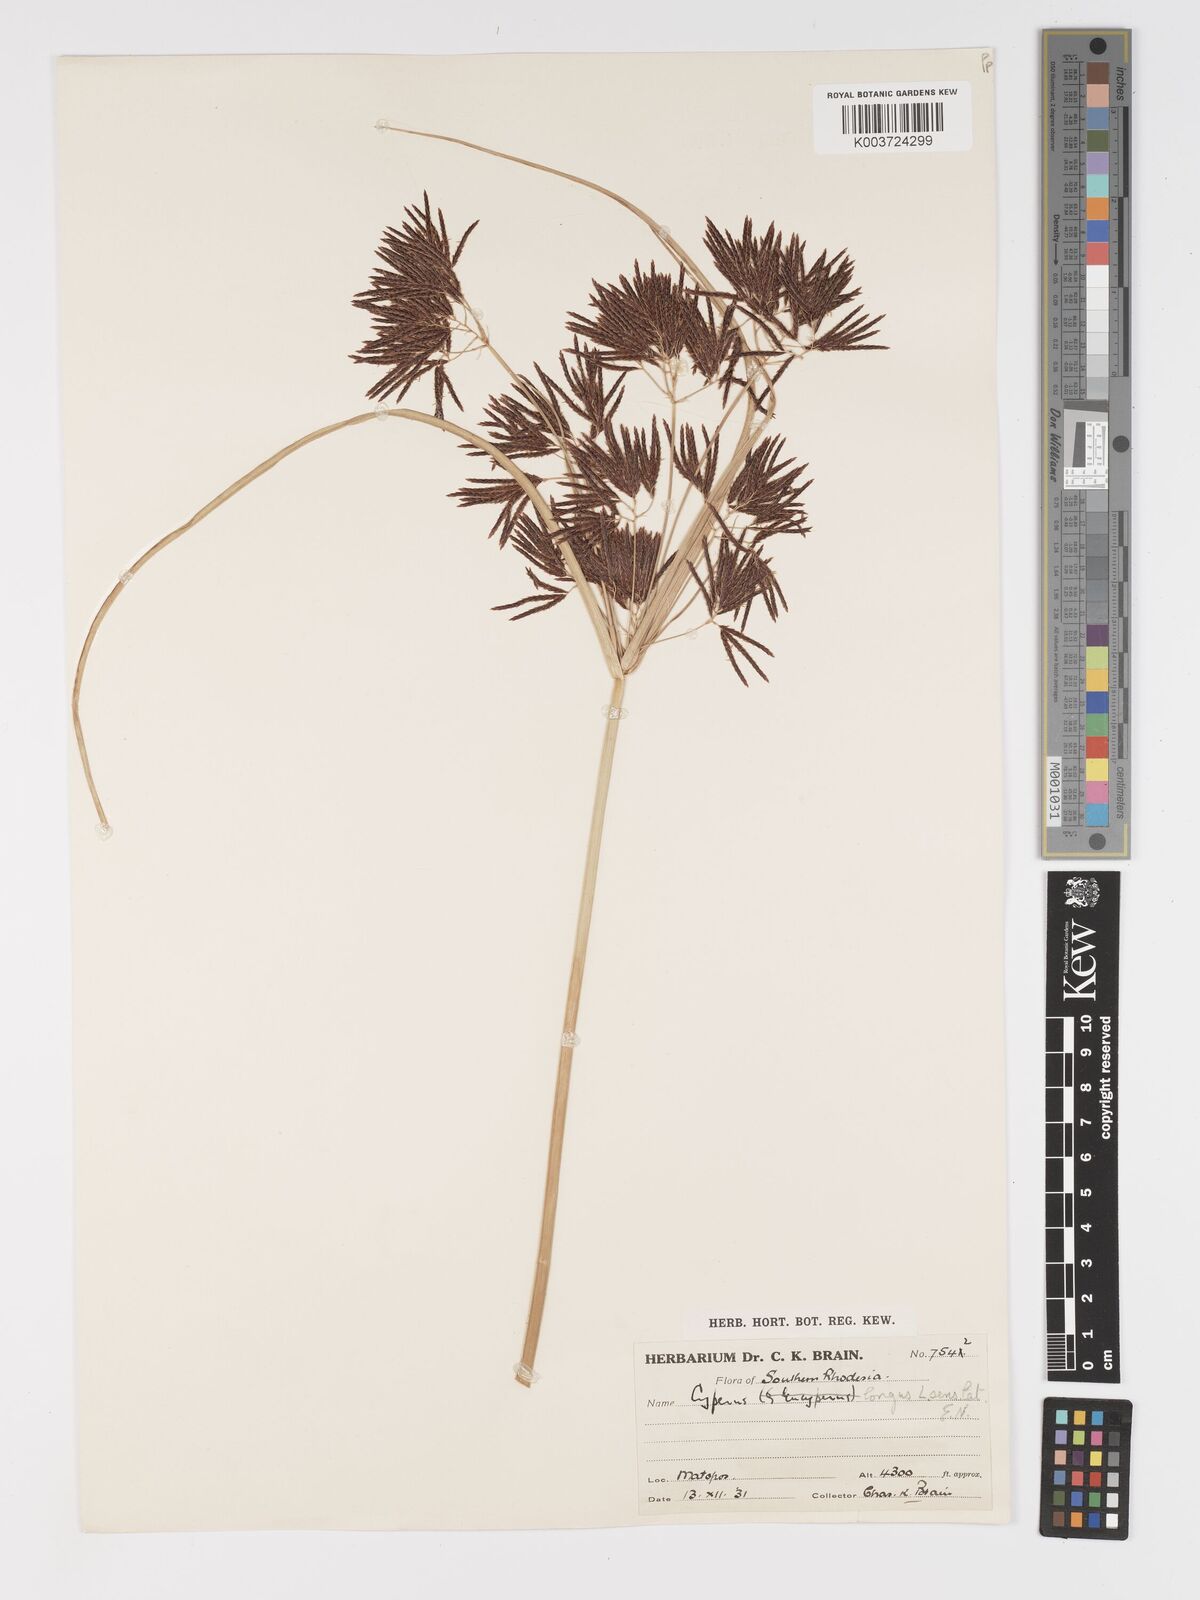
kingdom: Plantae
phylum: Tracheophyta
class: Liliopsida
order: Poales
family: Cyperaceae
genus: Cyperus
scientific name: Cyperus
